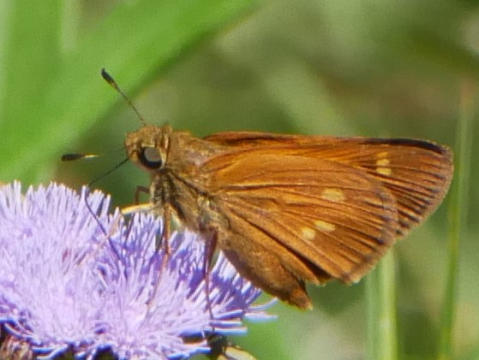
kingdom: Animalia
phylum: Arthropoda
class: Insecta
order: Lepidoptera
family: Hesperiidae
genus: Poanes
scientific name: Poanes yehl
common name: Yehl Skipper
